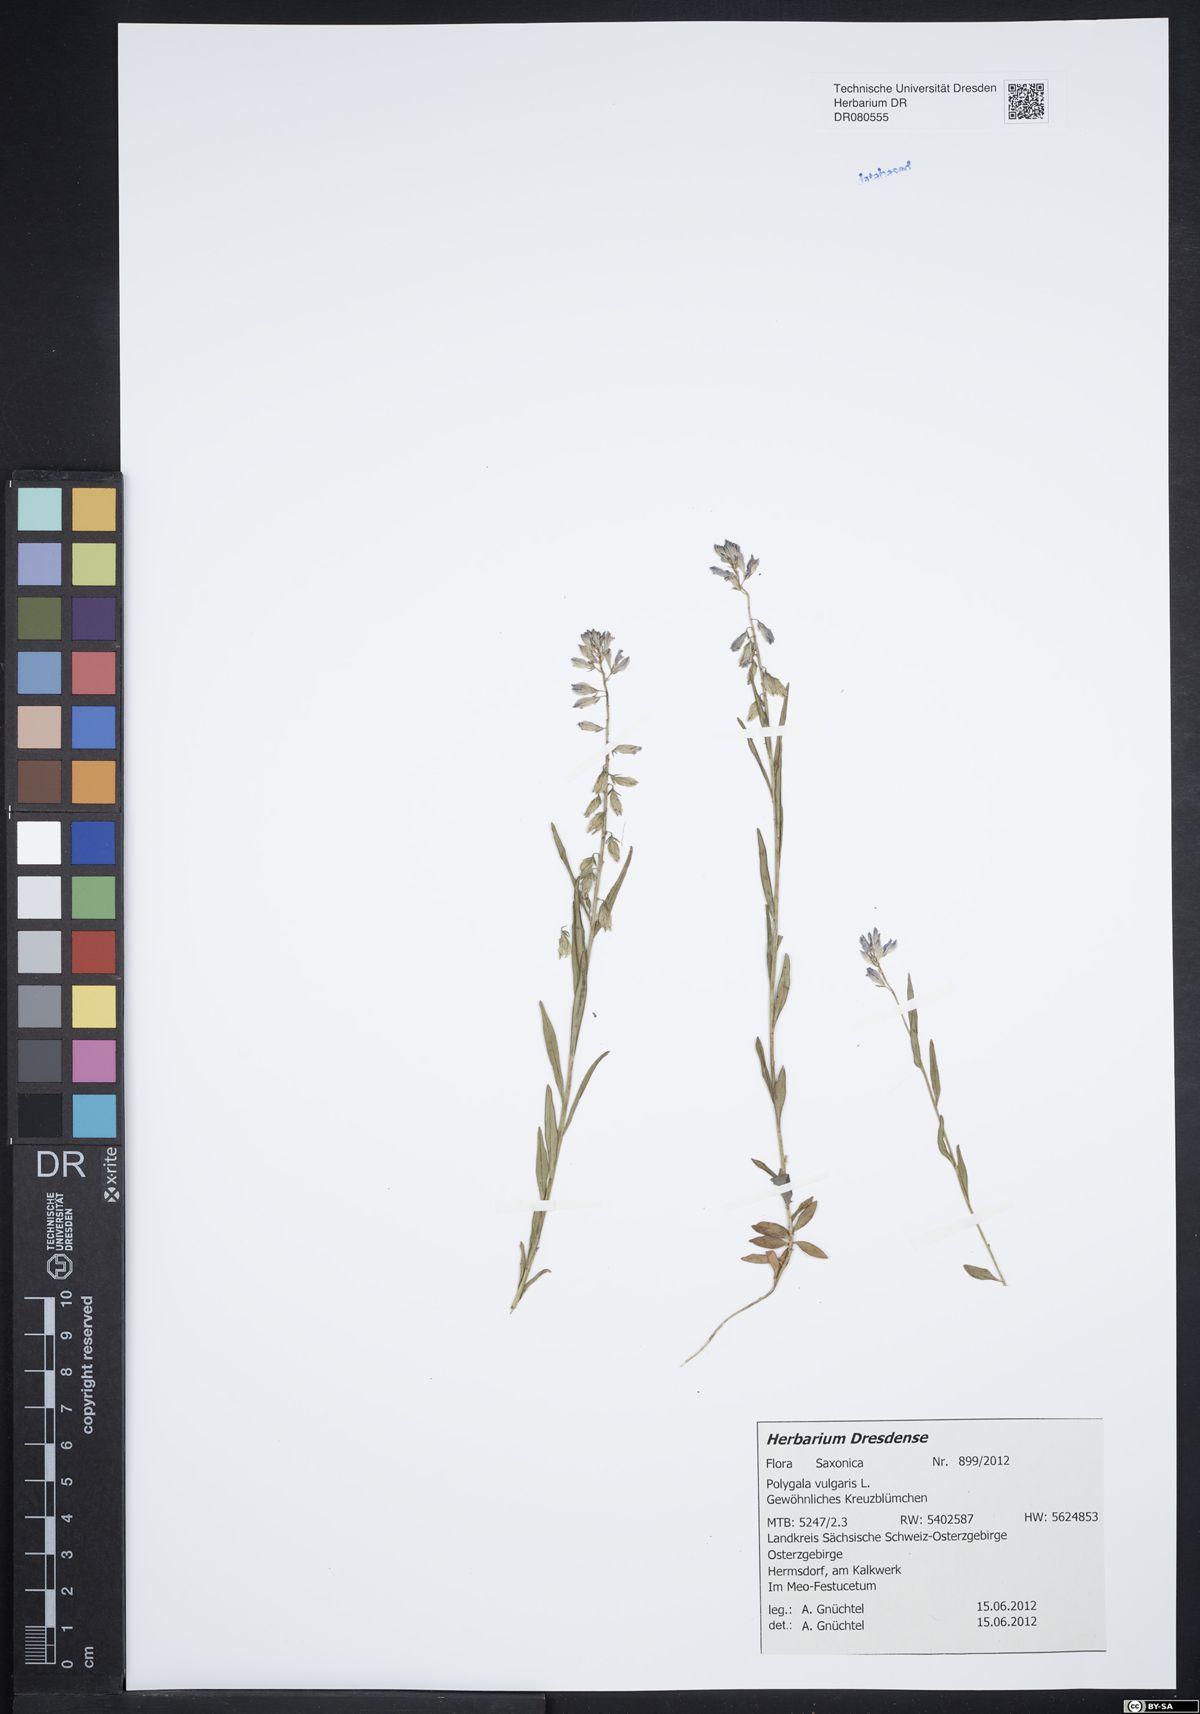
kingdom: Plantae
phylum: Tracheophyta
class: Magnoliopsida
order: Fabales
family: Polygalaceae
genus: Polygala
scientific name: Polygala vulgaris
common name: Common milkwort
